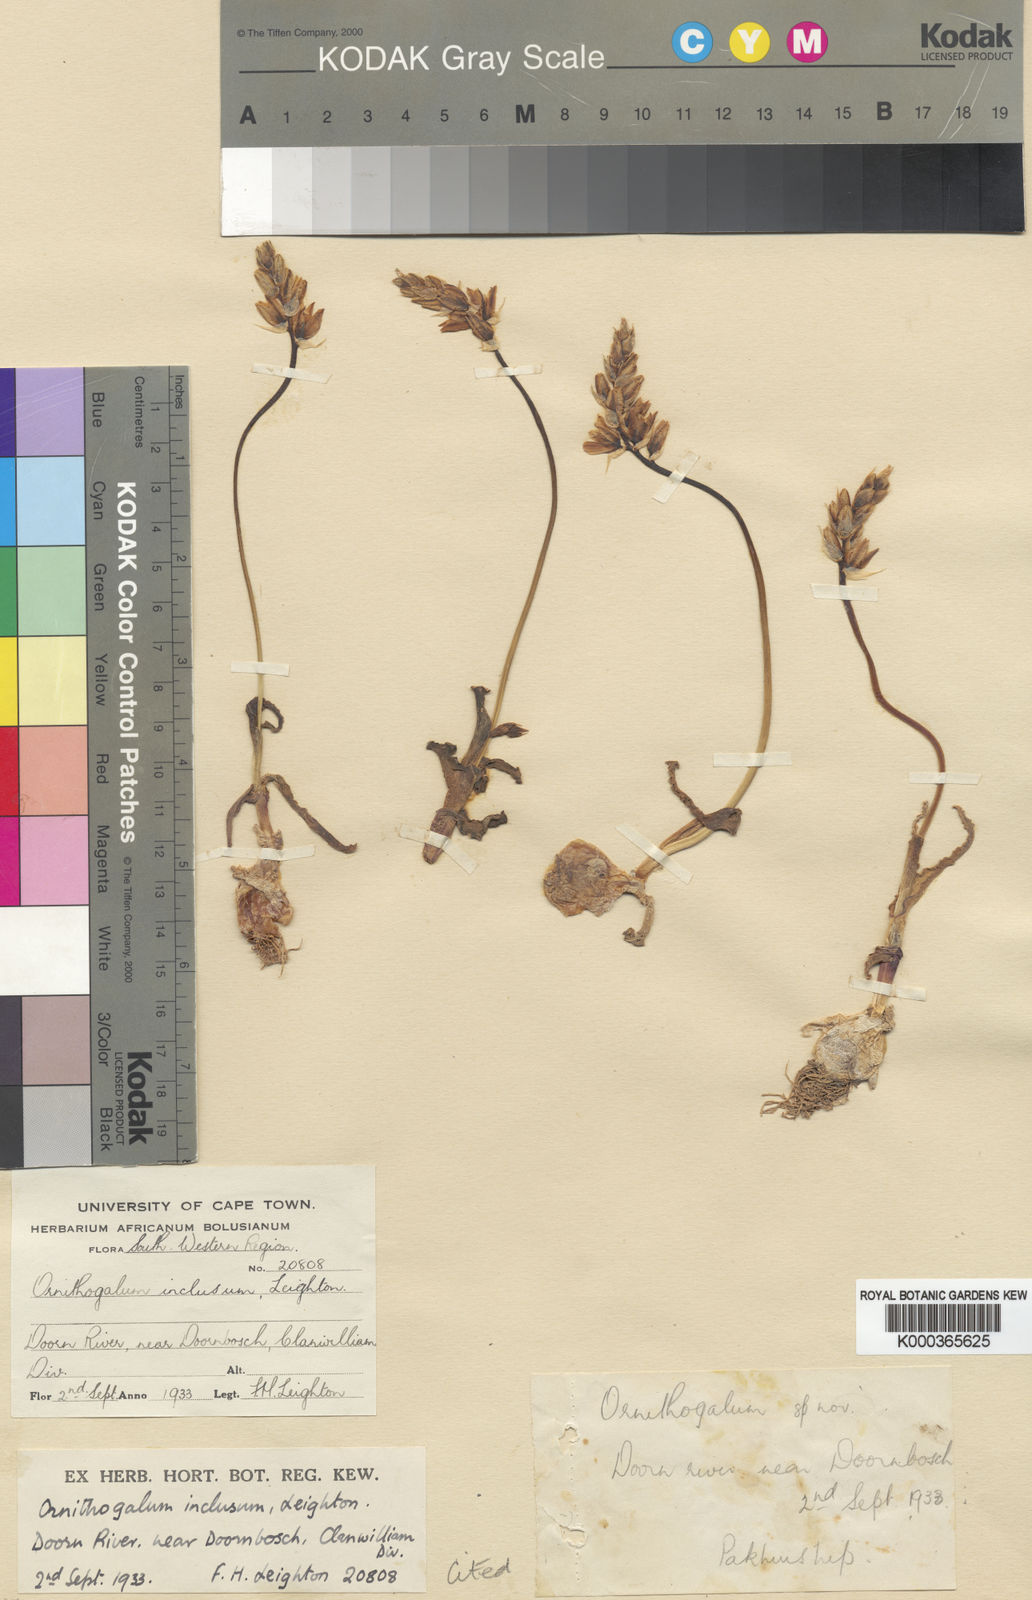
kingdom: Plantae
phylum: Tracheophyta
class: Liliopsida
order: Asparagales
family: Asparagaceae
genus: Ornithogalum
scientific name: Ornithogalum inclusum
